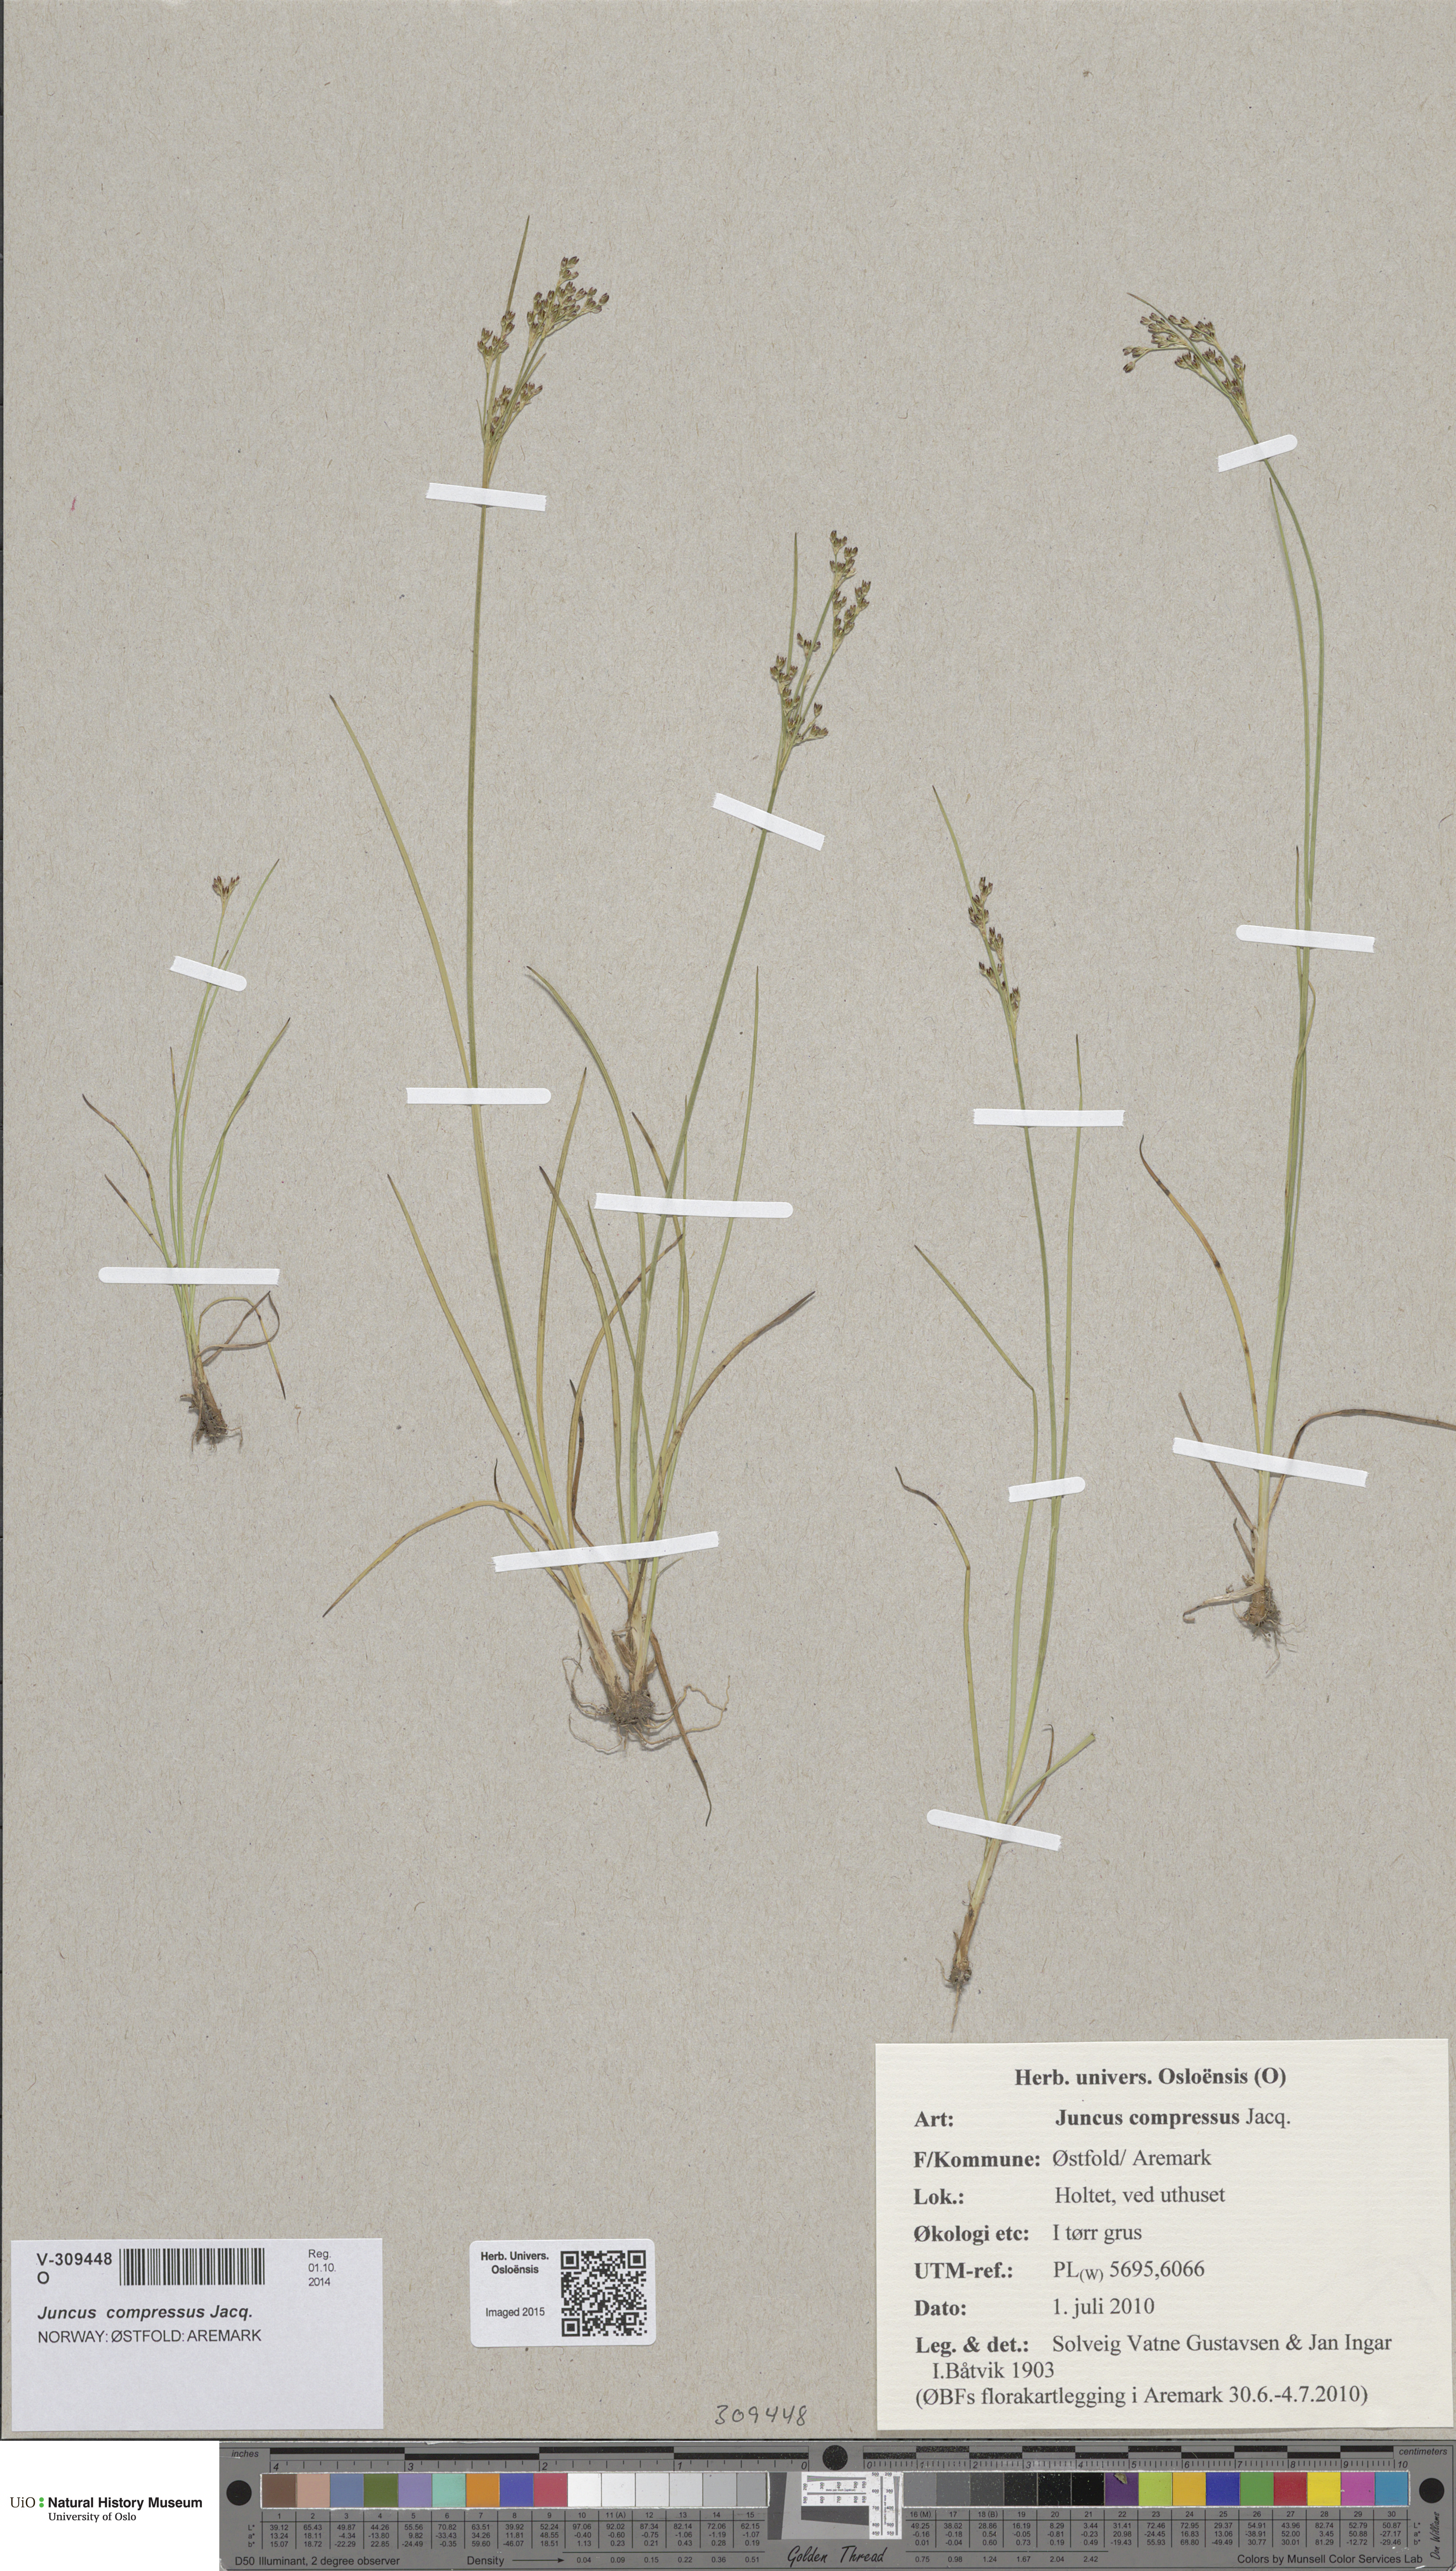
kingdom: Plantae
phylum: Tracheophyta
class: Liliopsida
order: Poales
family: Juncaceae
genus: Juncus
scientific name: Juncus compressus
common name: Round-fruited rush
